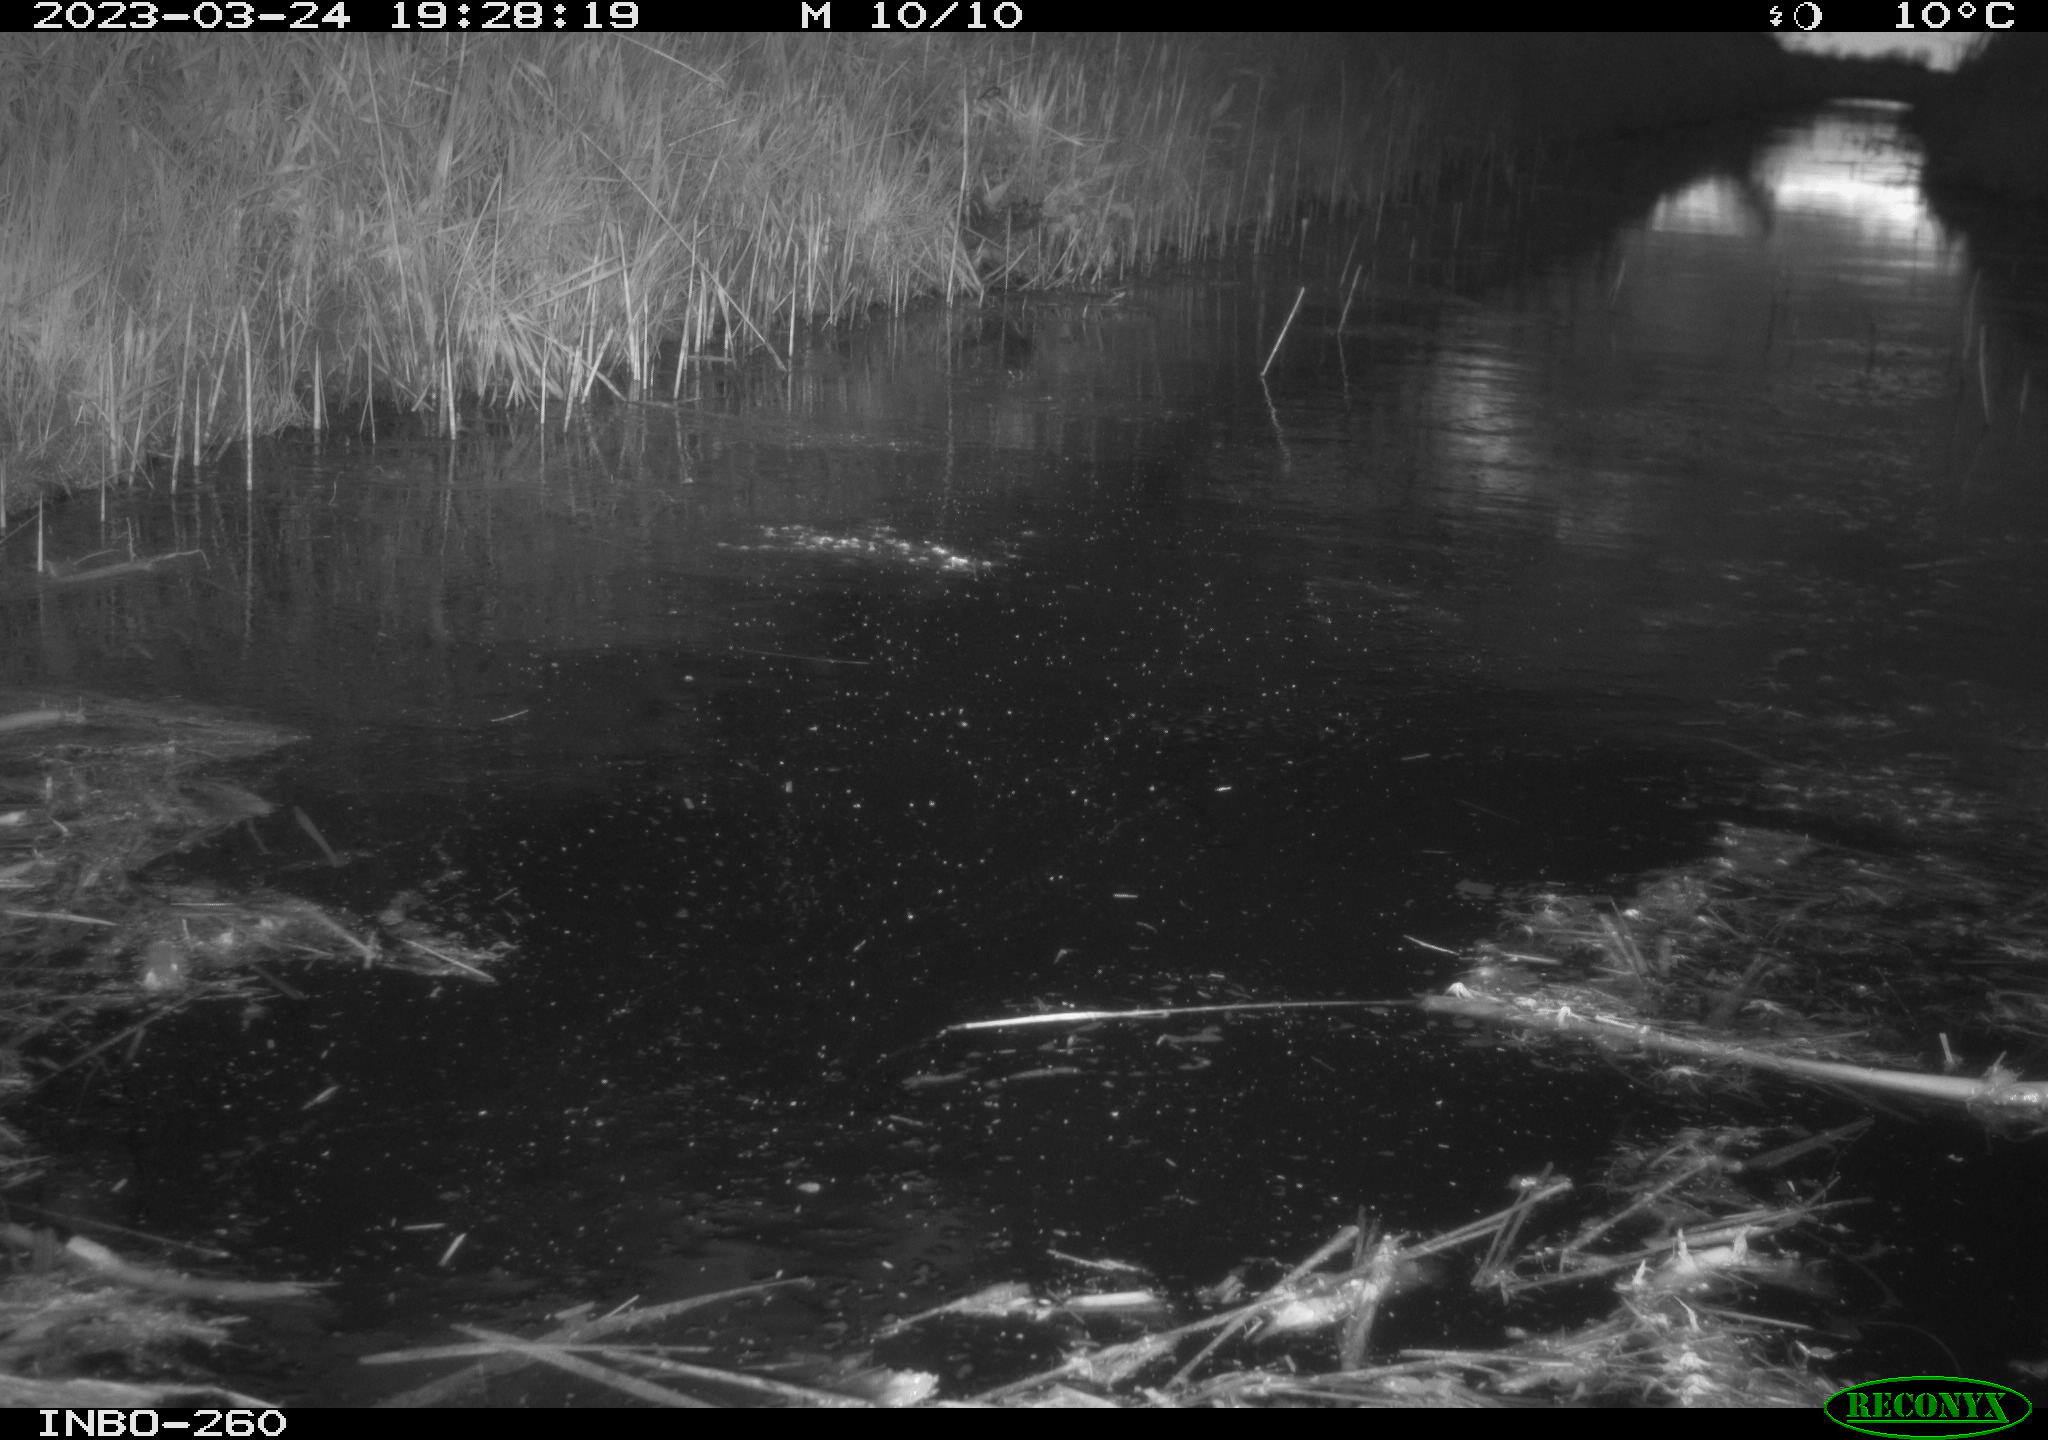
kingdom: Animalia
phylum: Chordata
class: Aves
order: Gruiformes
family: Rallidae
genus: Gallinula
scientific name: Gallinula chloropus
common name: Common moorhen
